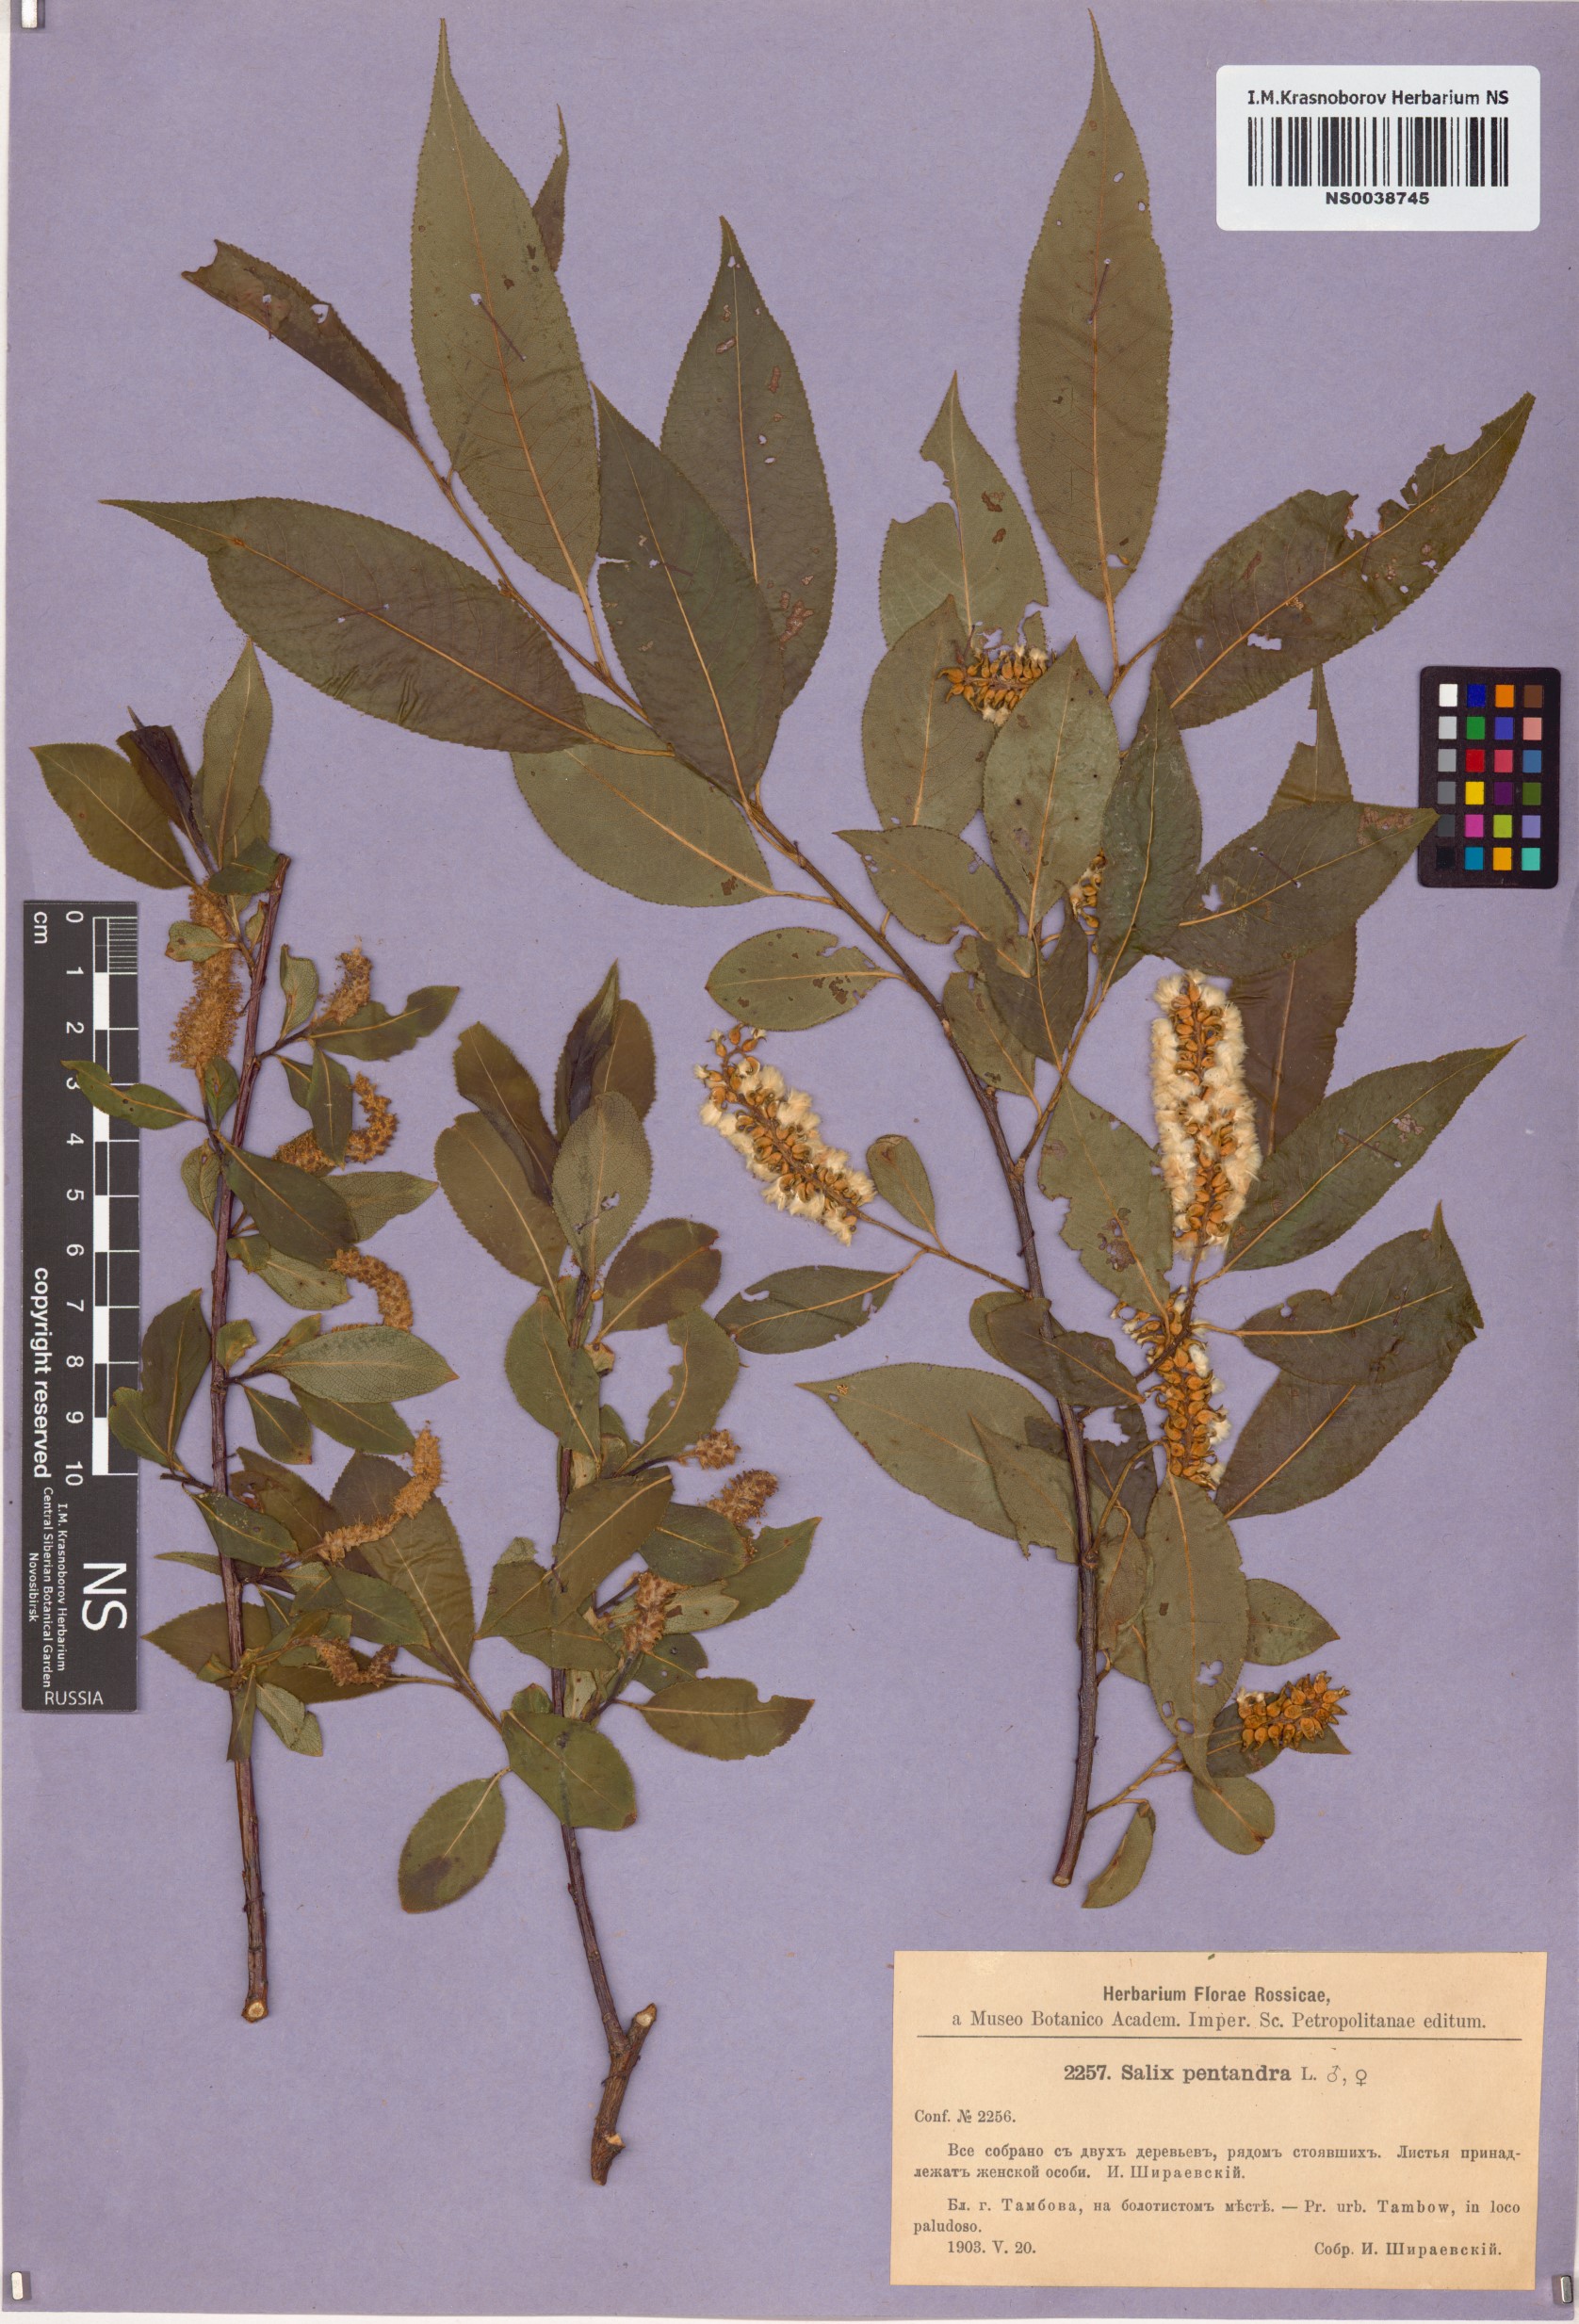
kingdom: Plantae
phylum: Tracheophyta
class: Magnoliopsida
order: Malpighiales
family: Salicaceae
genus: Salix
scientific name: Salix pentandra
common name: Bay willow
